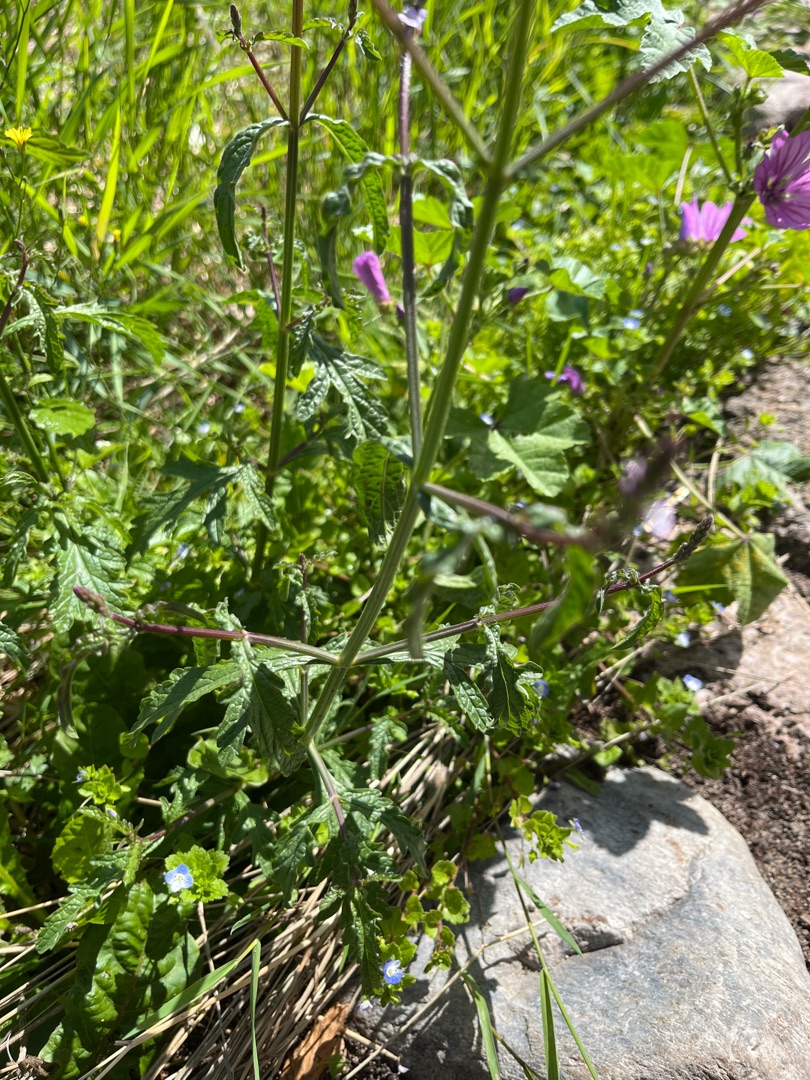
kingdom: Plantae
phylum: Tracheophyta
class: Magnoliopsida
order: Lamiales
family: Verbenaceae
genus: Verbena
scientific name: Verbena officinalis
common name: Læge-jernurt
